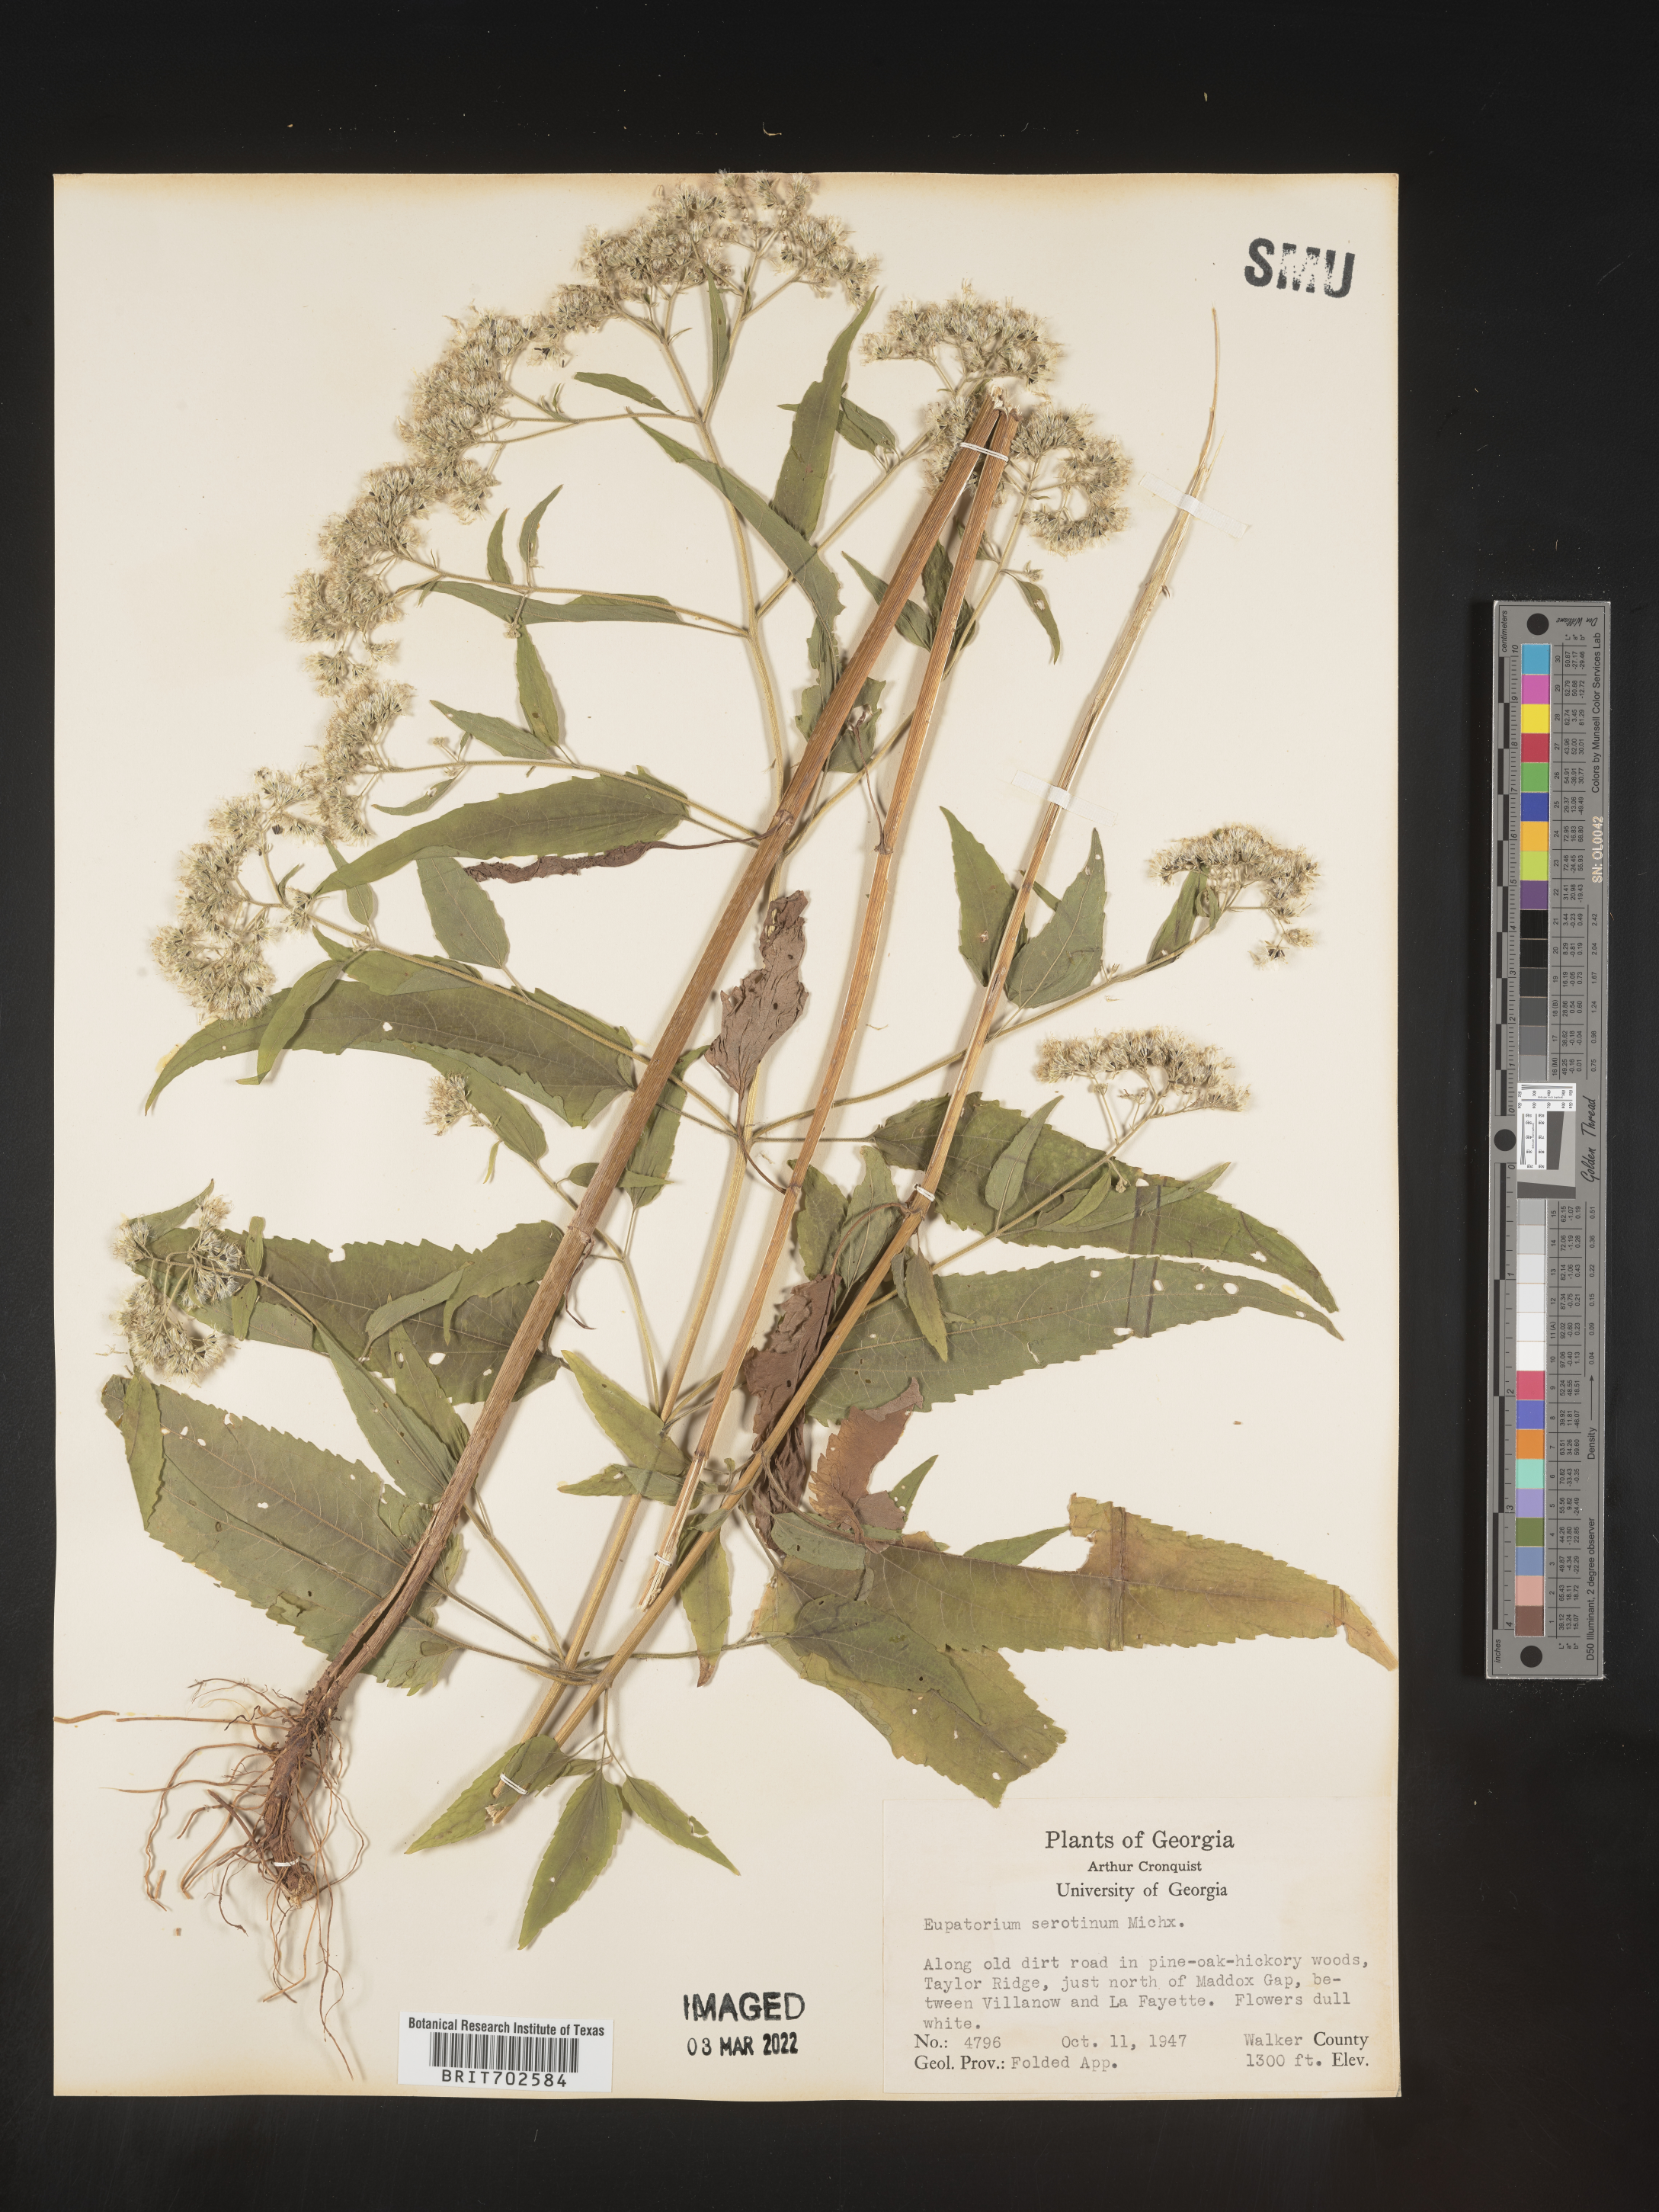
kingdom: Plantae
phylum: Tracheophyta
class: Magnoliopsida
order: Asterales
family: Asteraceae
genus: Eupatorium
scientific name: Eupatorium serotinum
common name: Late boneset
